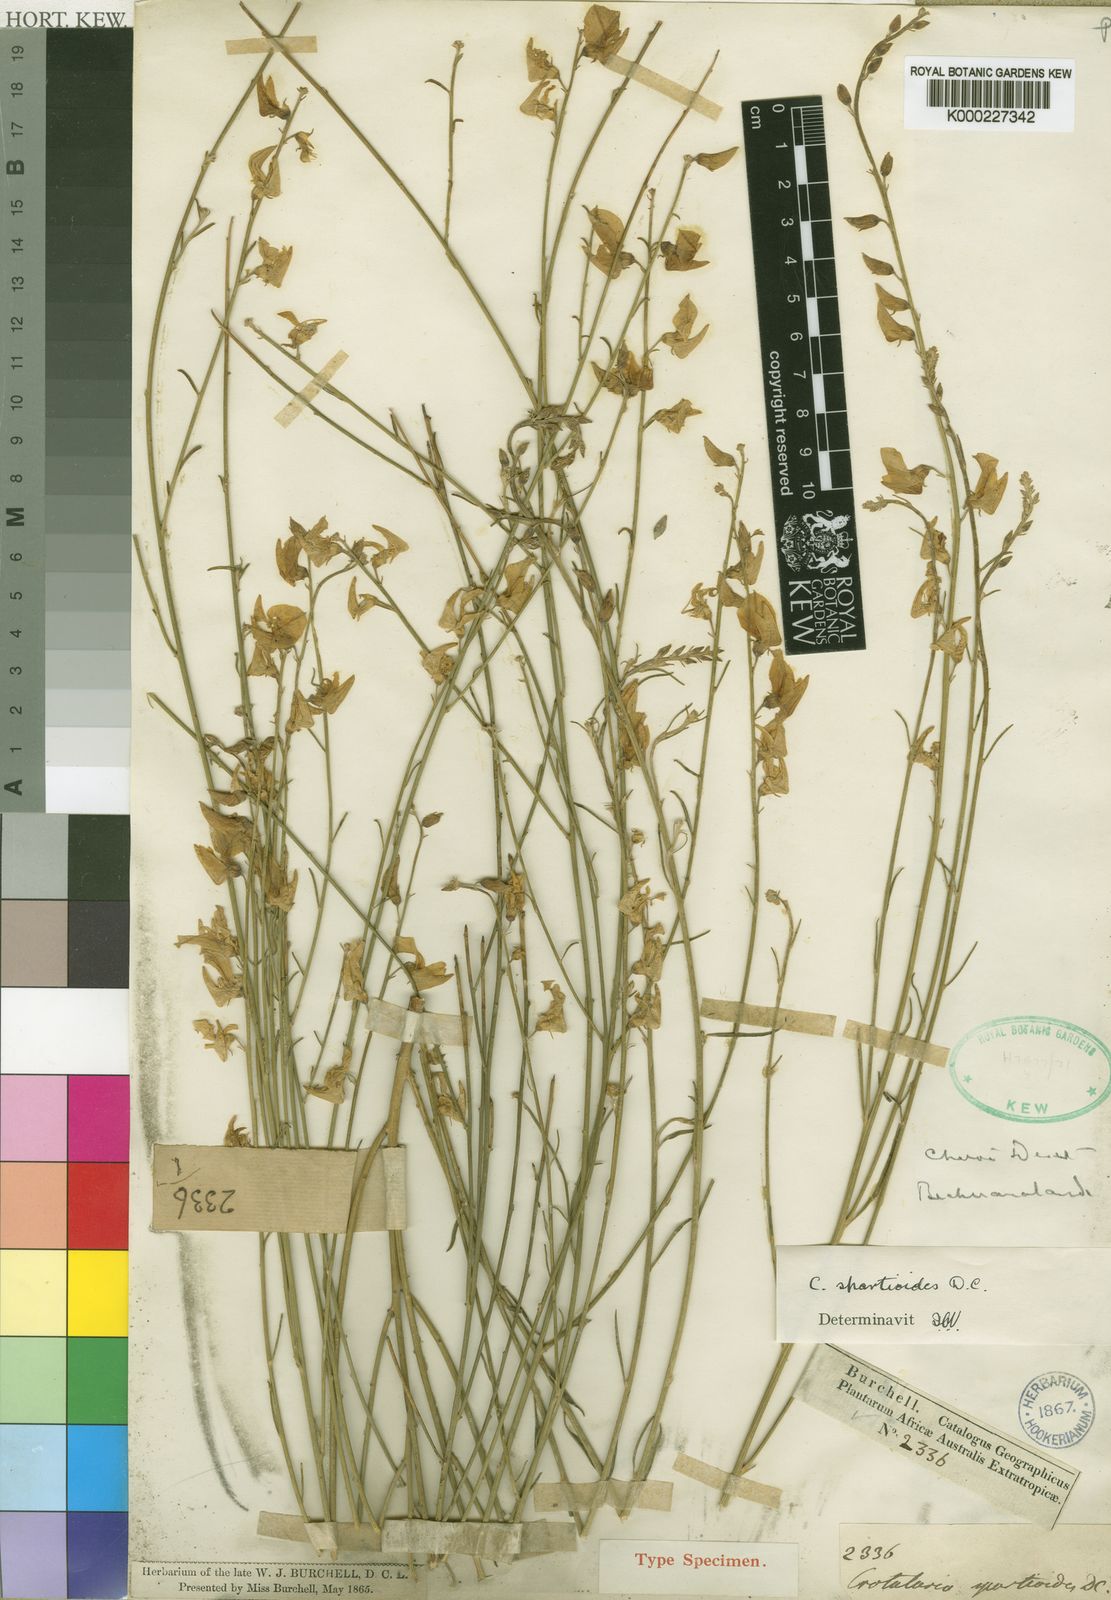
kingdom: Plantae
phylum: Tracheophyta
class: Magnoliopsida
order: Fabales
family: Fabaceae
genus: Crotalaria
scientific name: Crotalaria spartioides
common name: Dunebush
